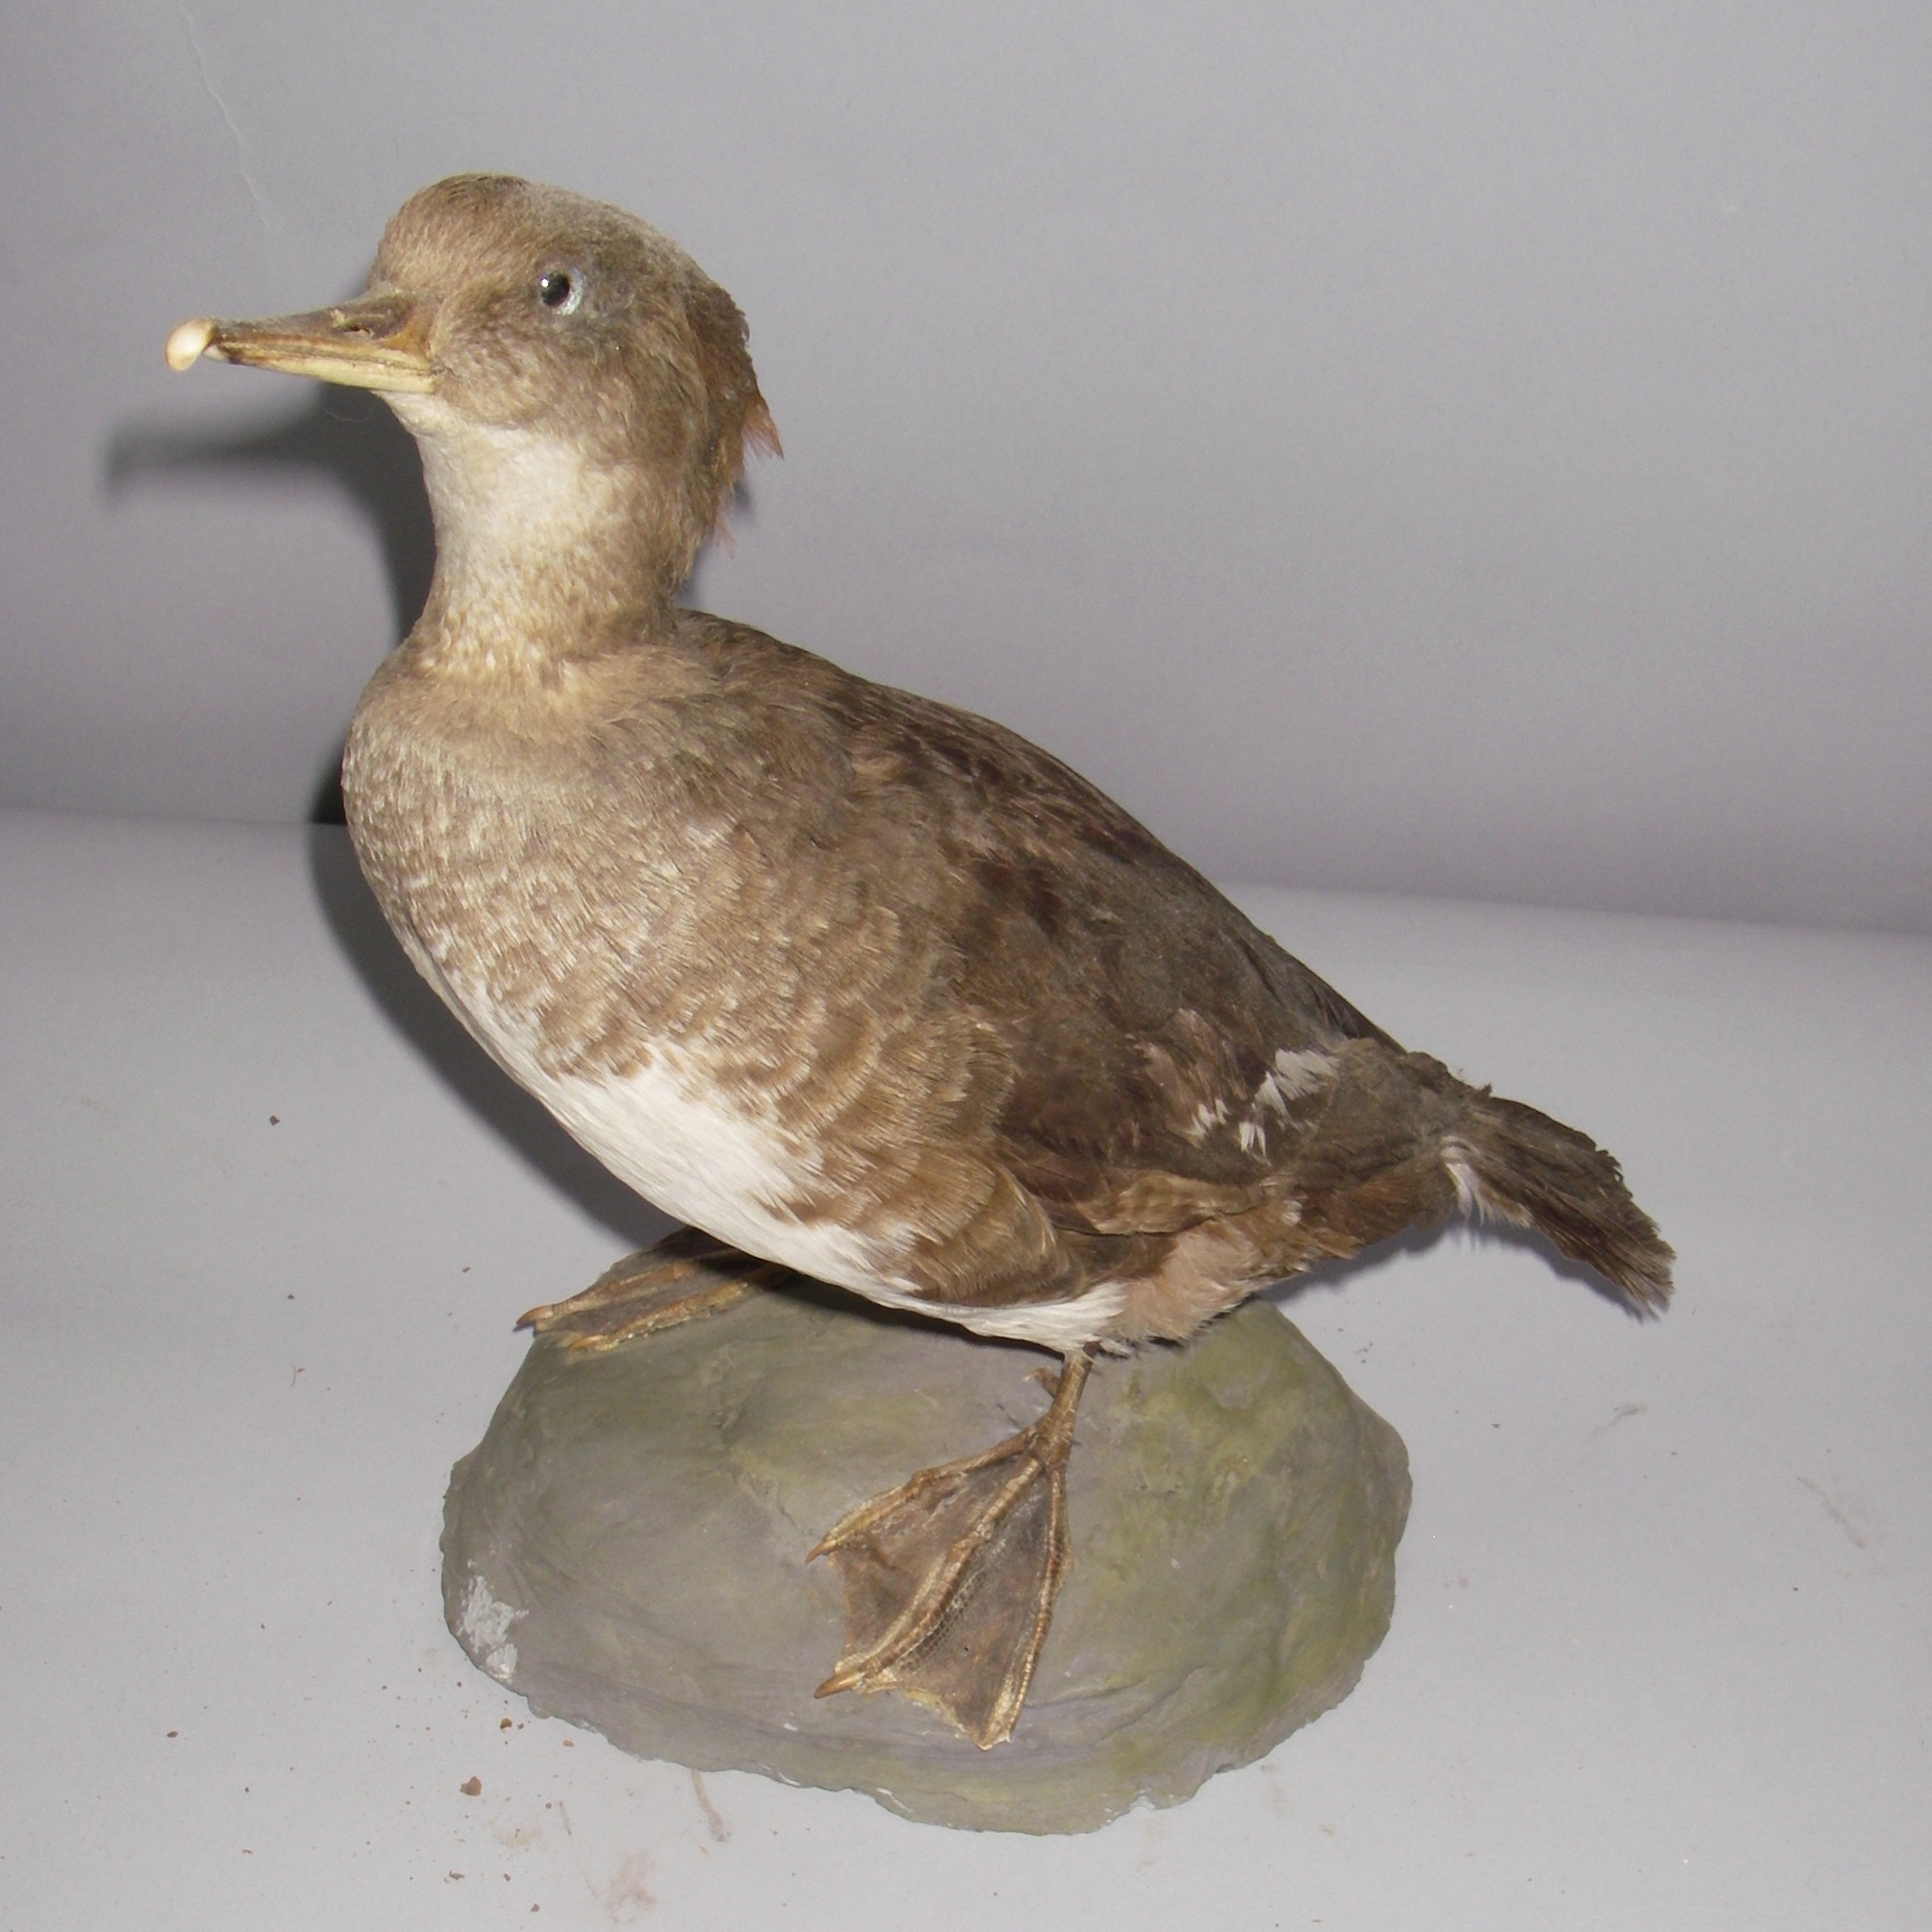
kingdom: Animalia
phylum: Chordata
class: Aves
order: Anseriformes
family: Anatidae
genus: Mergellus
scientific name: Mergellus albellus
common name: Smew
